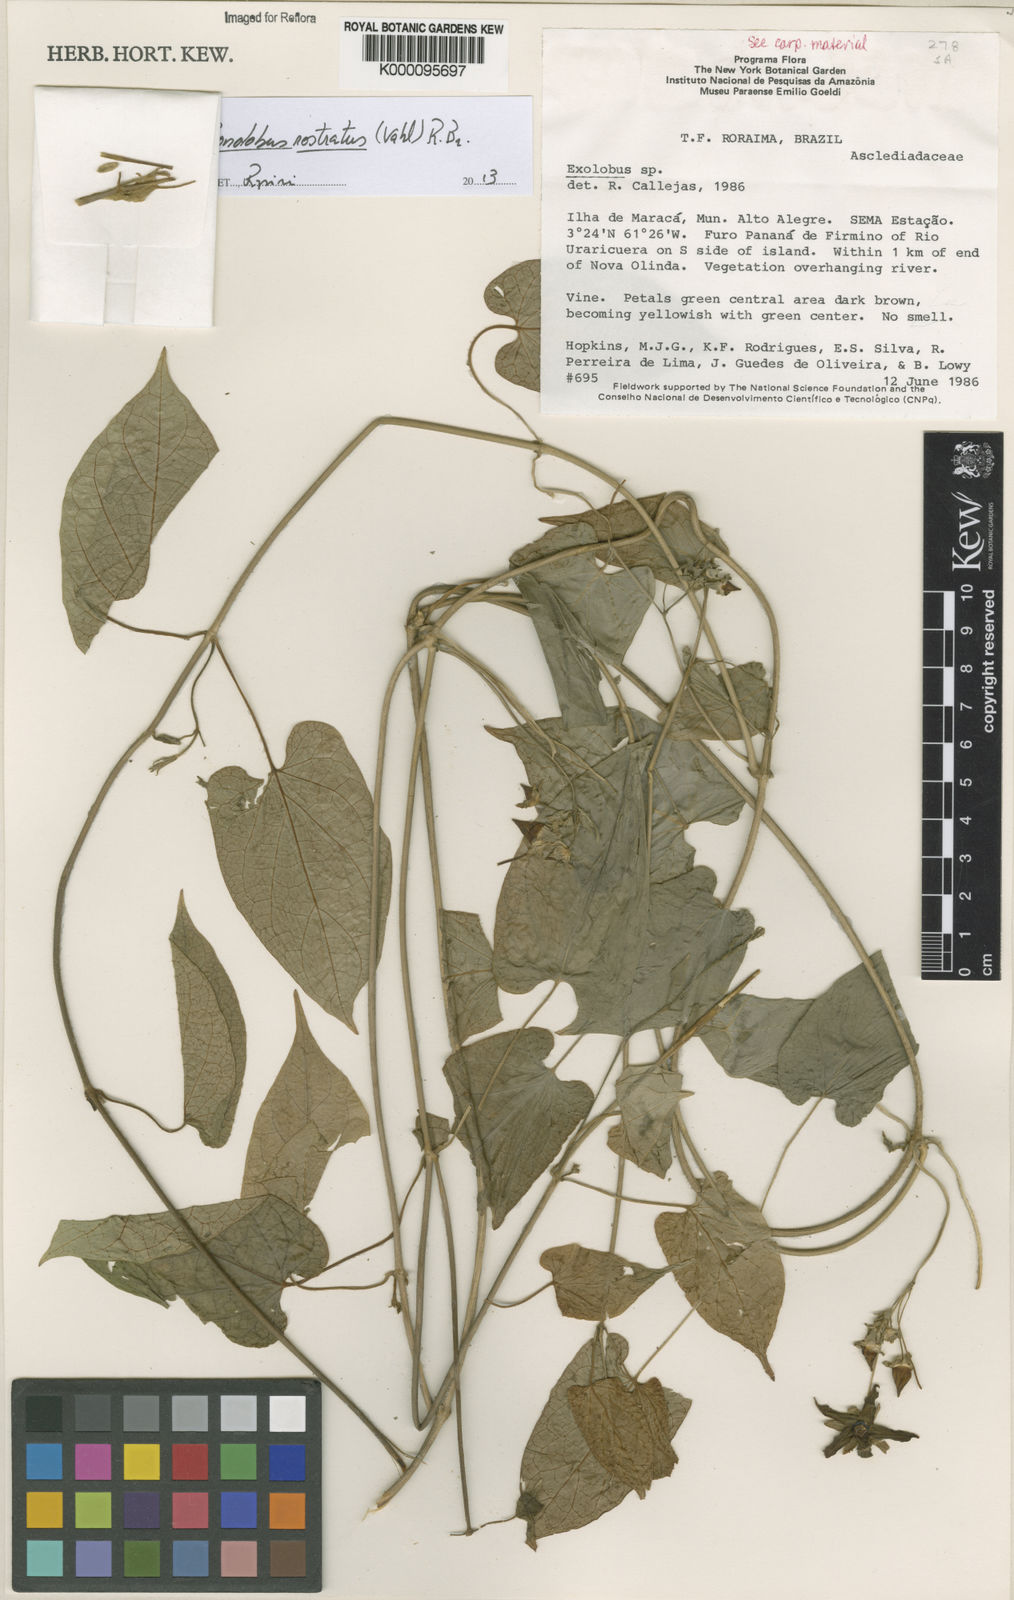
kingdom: Plantae
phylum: Tracheophyta
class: Magnoliopsida
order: Gentianales
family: Apocynaceae
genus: Gonolobus
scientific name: Gonolobus rostratus
